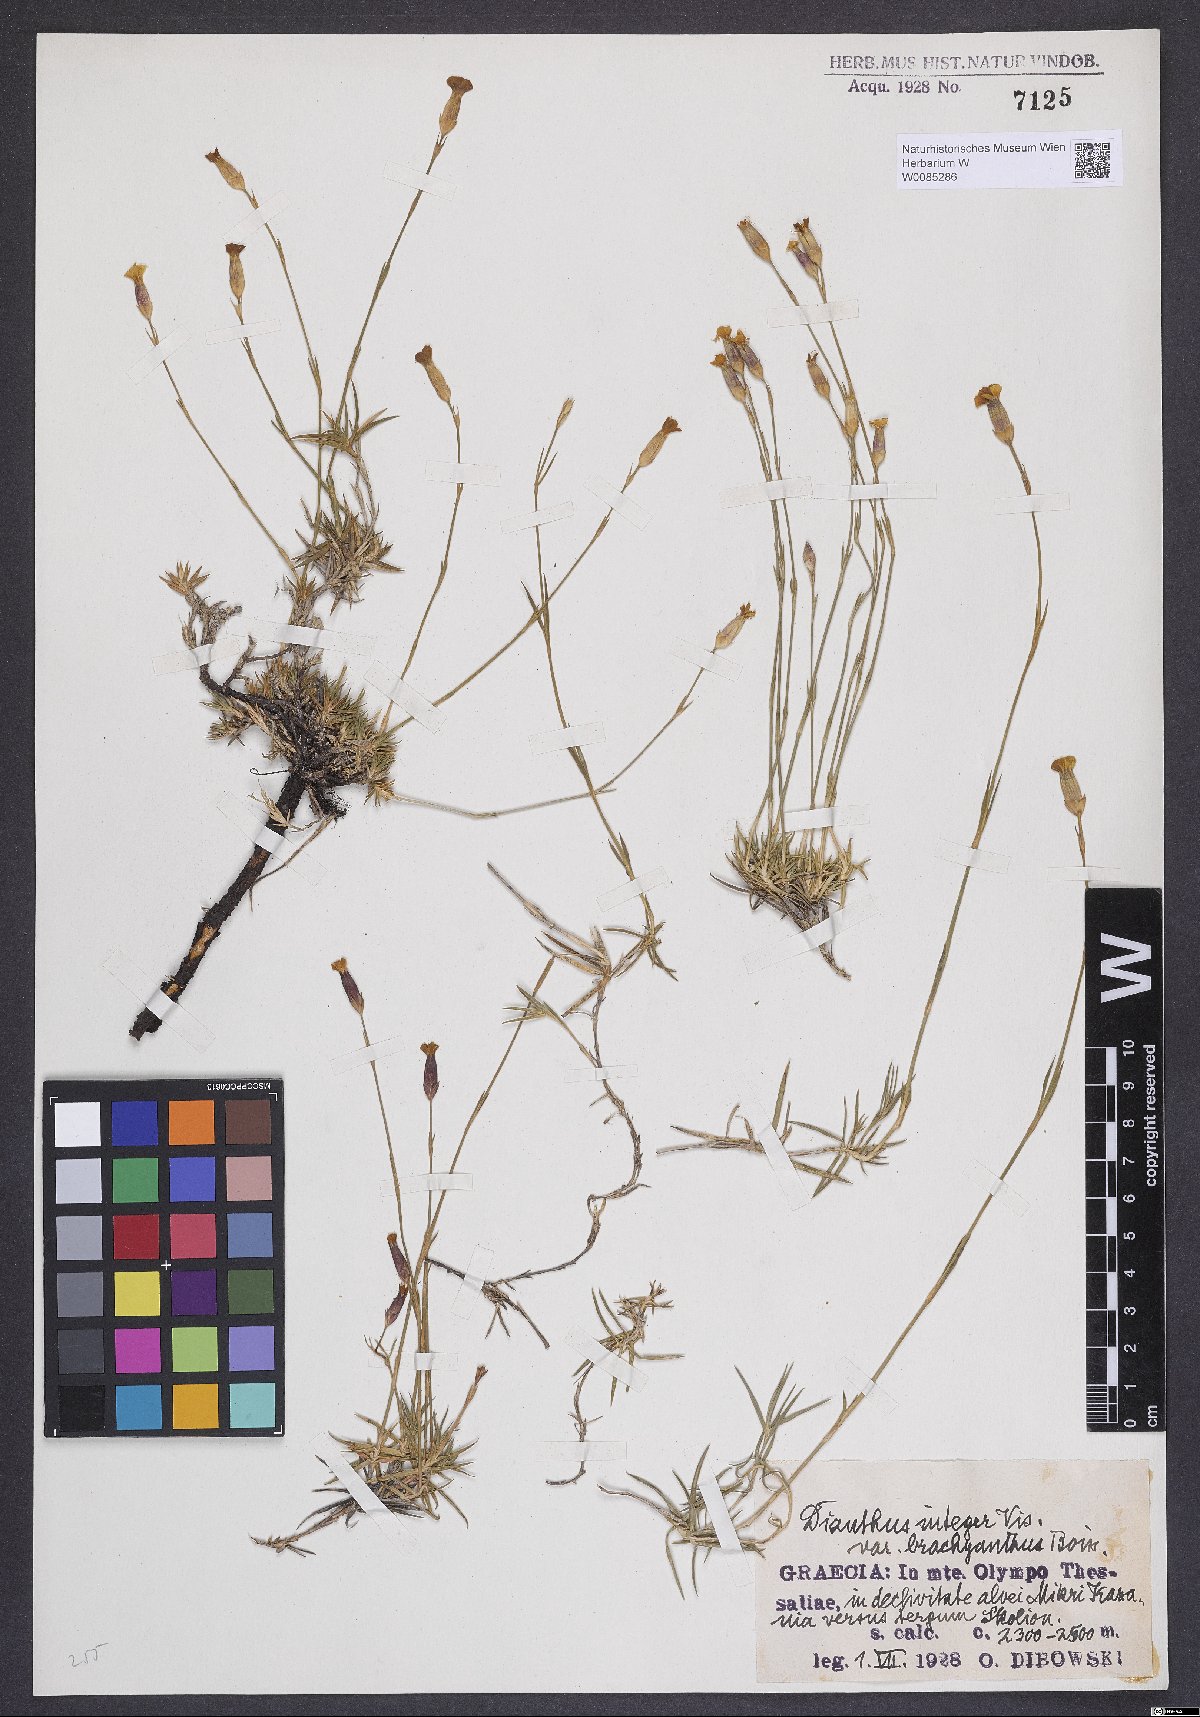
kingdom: Plantae
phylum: Tracheophyta
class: Magnoliopsida
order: Caryophyllales
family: Caryophyllaceae
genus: Dianthus
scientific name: Dianthus petraeus
